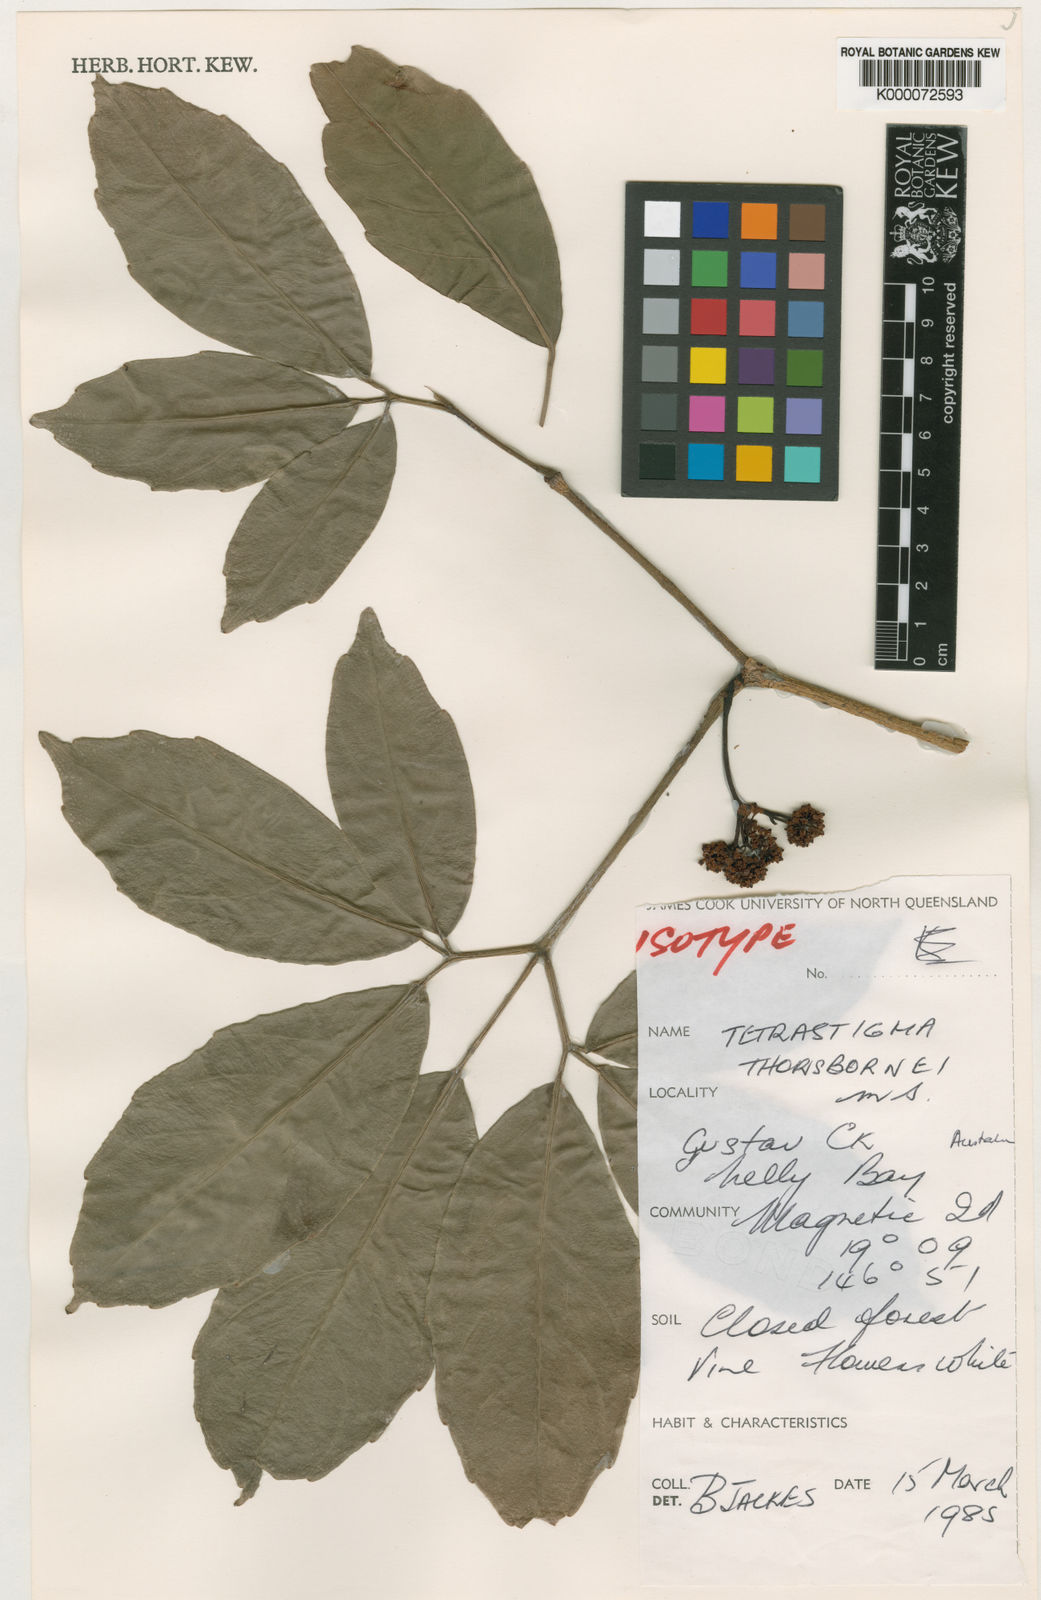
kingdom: Plantae
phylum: Tracheophyta
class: Magnoliopsida
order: Vitales
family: Vitaceae
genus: Tetrastigma
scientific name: Tetrastigma thorsborneorum
